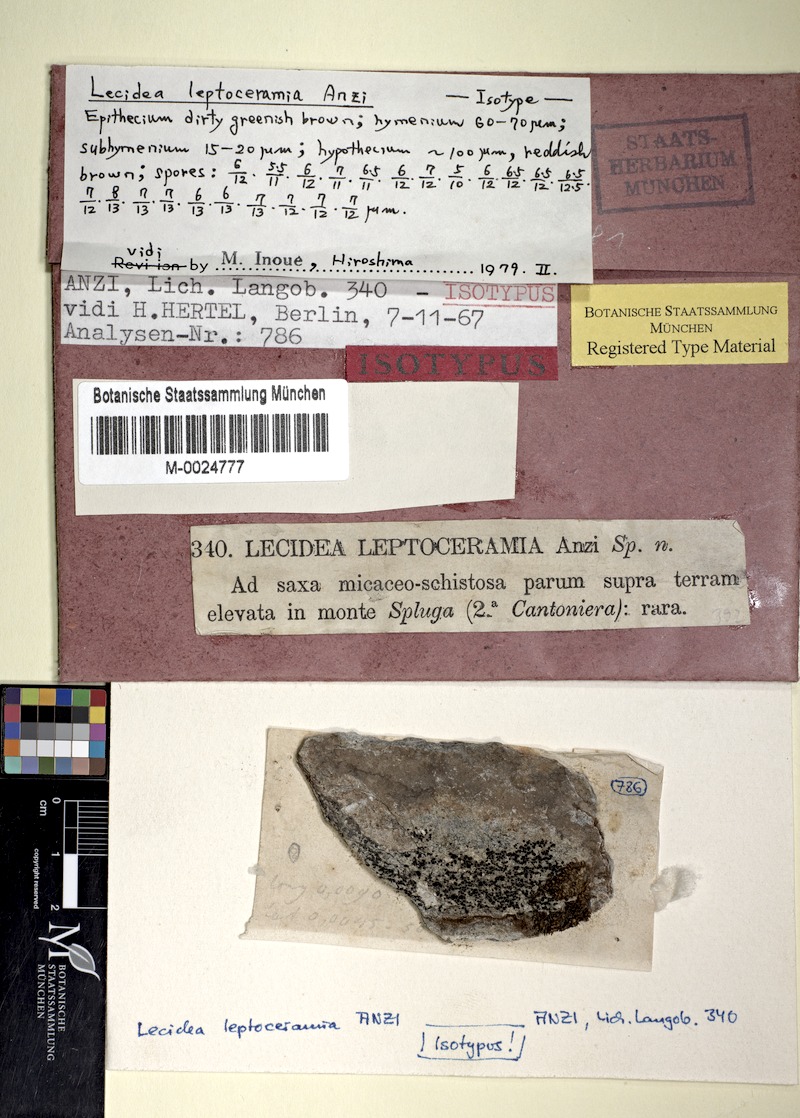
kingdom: Fungi
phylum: Ascomycota
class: Lecanoromycetes
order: Lecideales
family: Lecideaceae
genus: Lecidea
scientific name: Lecidea leptoceramia
